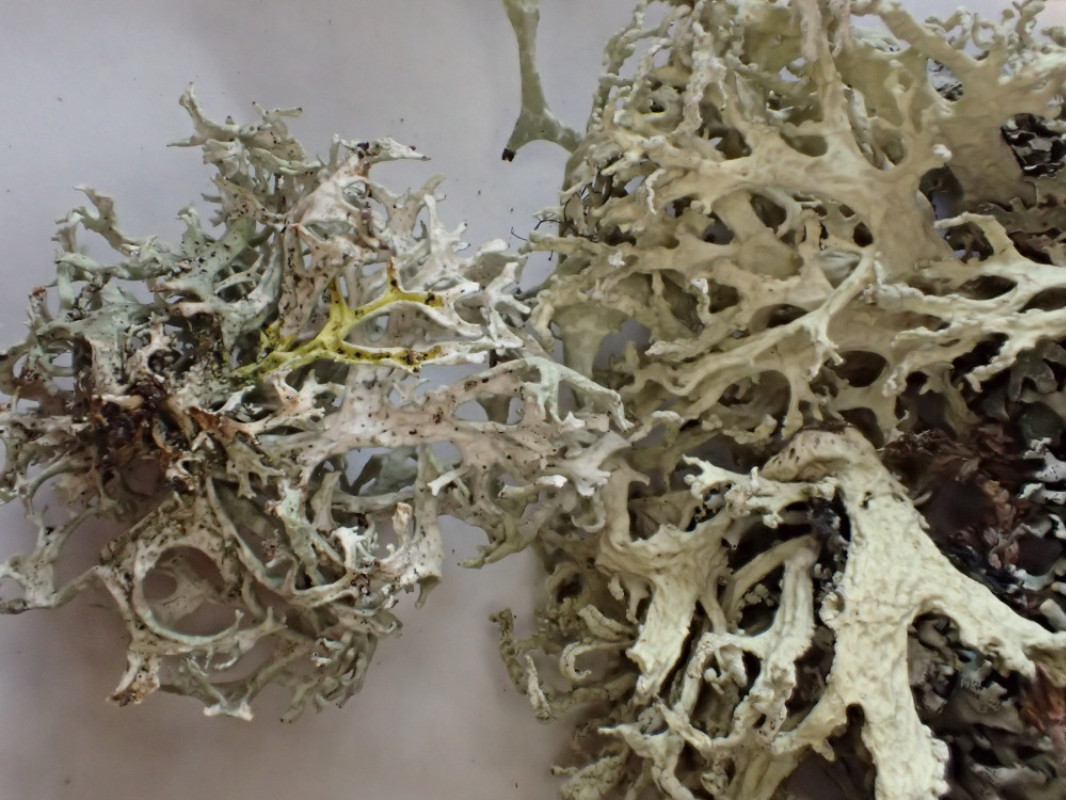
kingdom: Fungi
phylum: Ascomycota
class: Lecanoromycetes
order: Lecanorales
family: Parmeliaceae
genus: Evernia
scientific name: Evernia prunastri
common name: almindelig slåenlav
